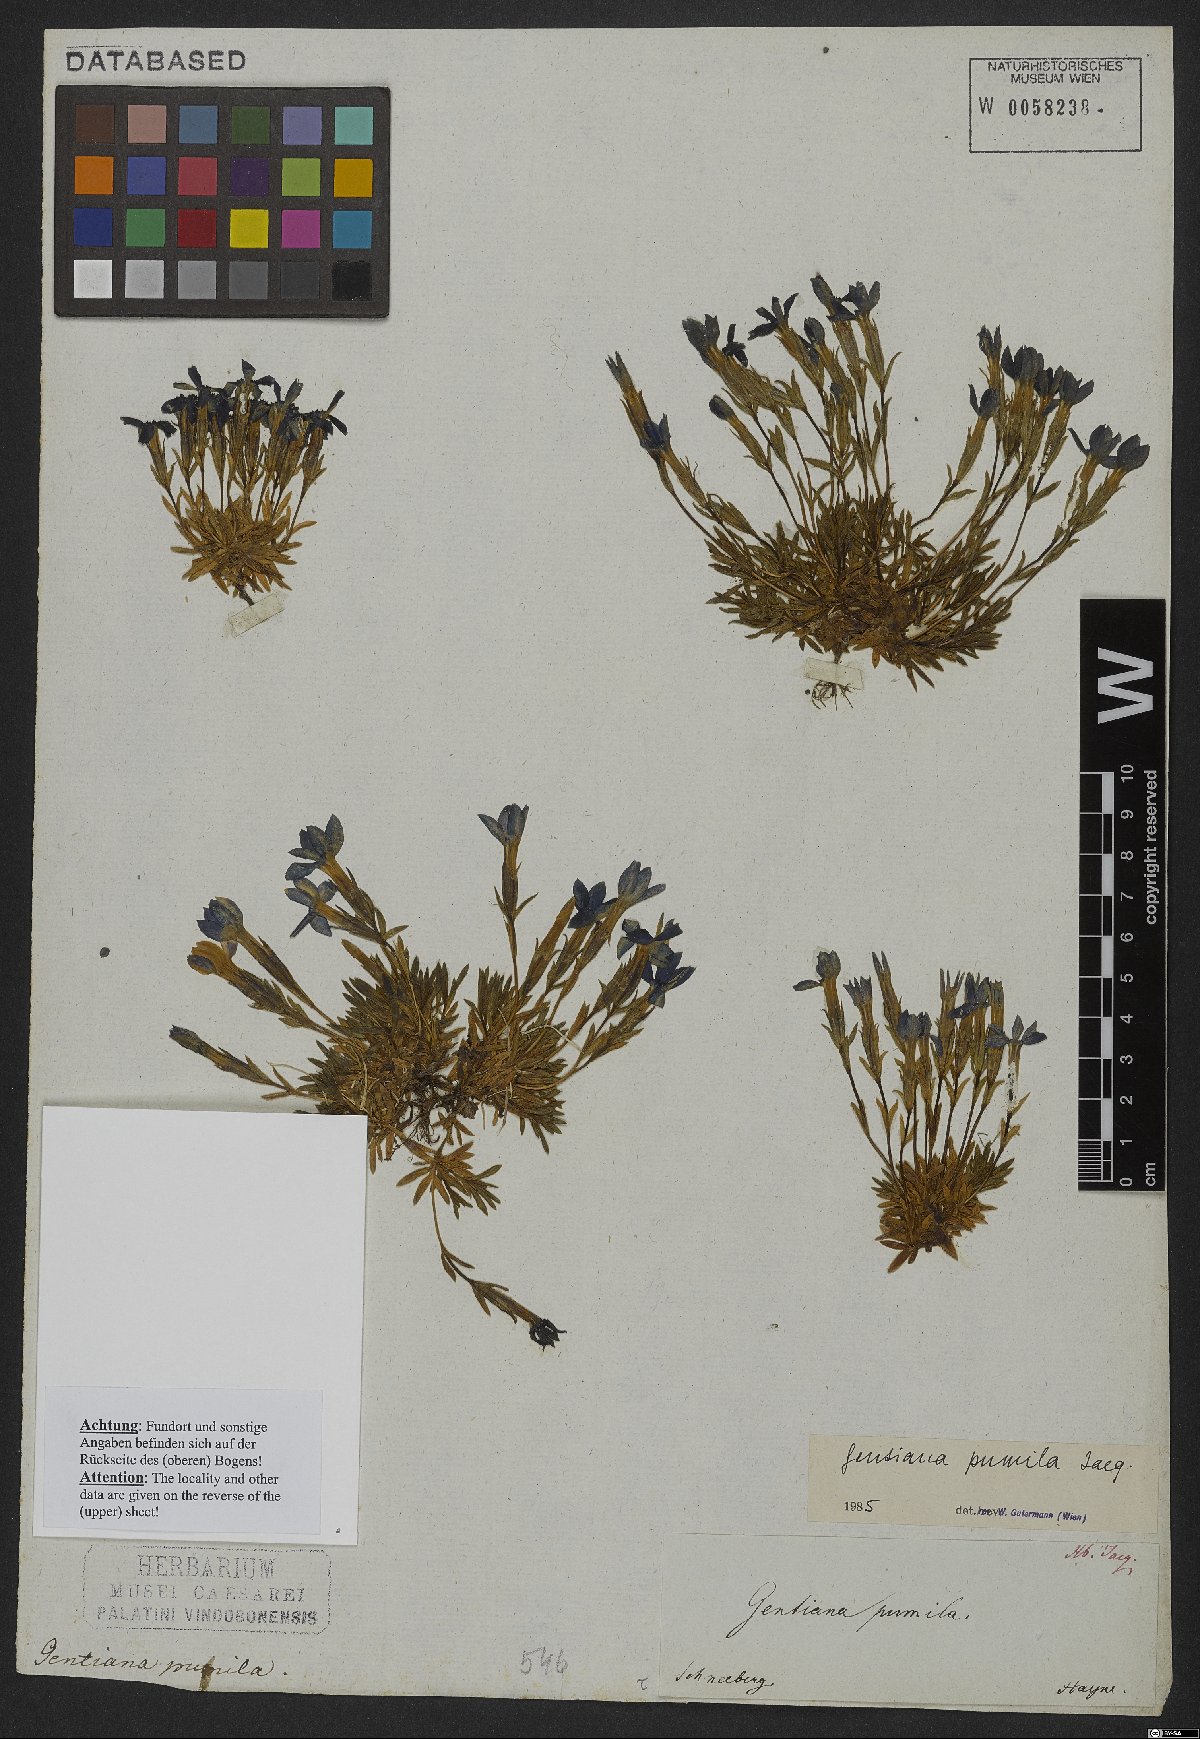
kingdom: Plantae
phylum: Tracheophyta
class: Magnoliopsida
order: Gentianales
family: Gentianaceae
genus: Gentiana
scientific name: Gentiana pumila
